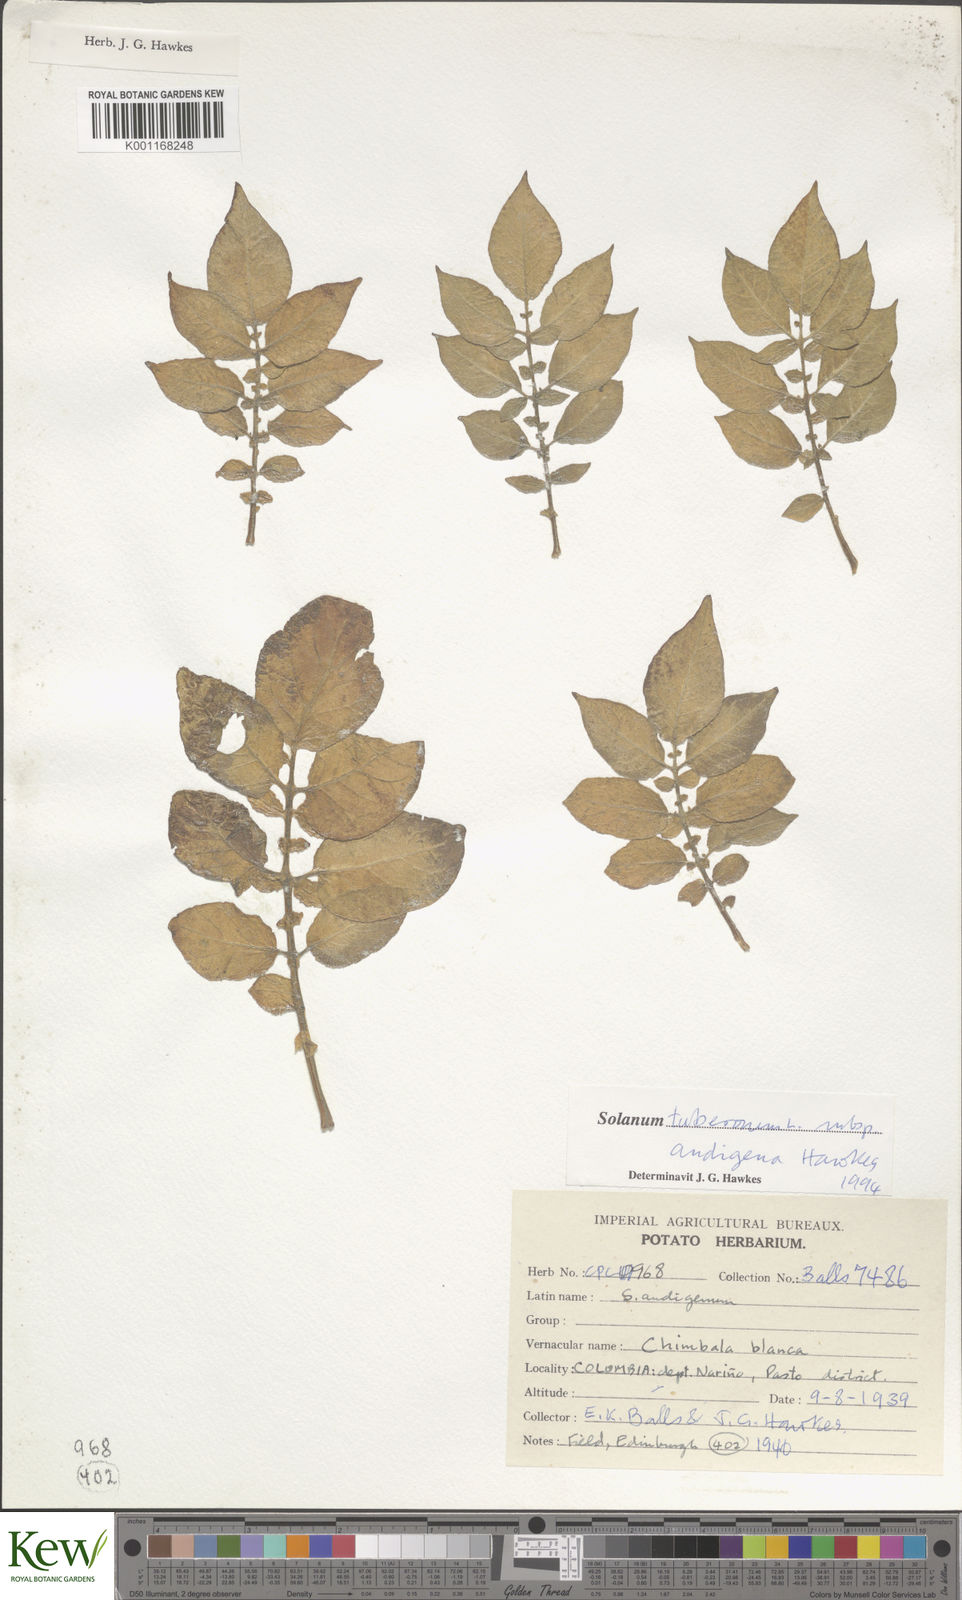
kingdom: Plantae
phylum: Tracheophyta
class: Magnoliopsida
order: Solanales
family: Solanaceae
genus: Solanum
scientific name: Solanum tuberosum
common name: Potato
